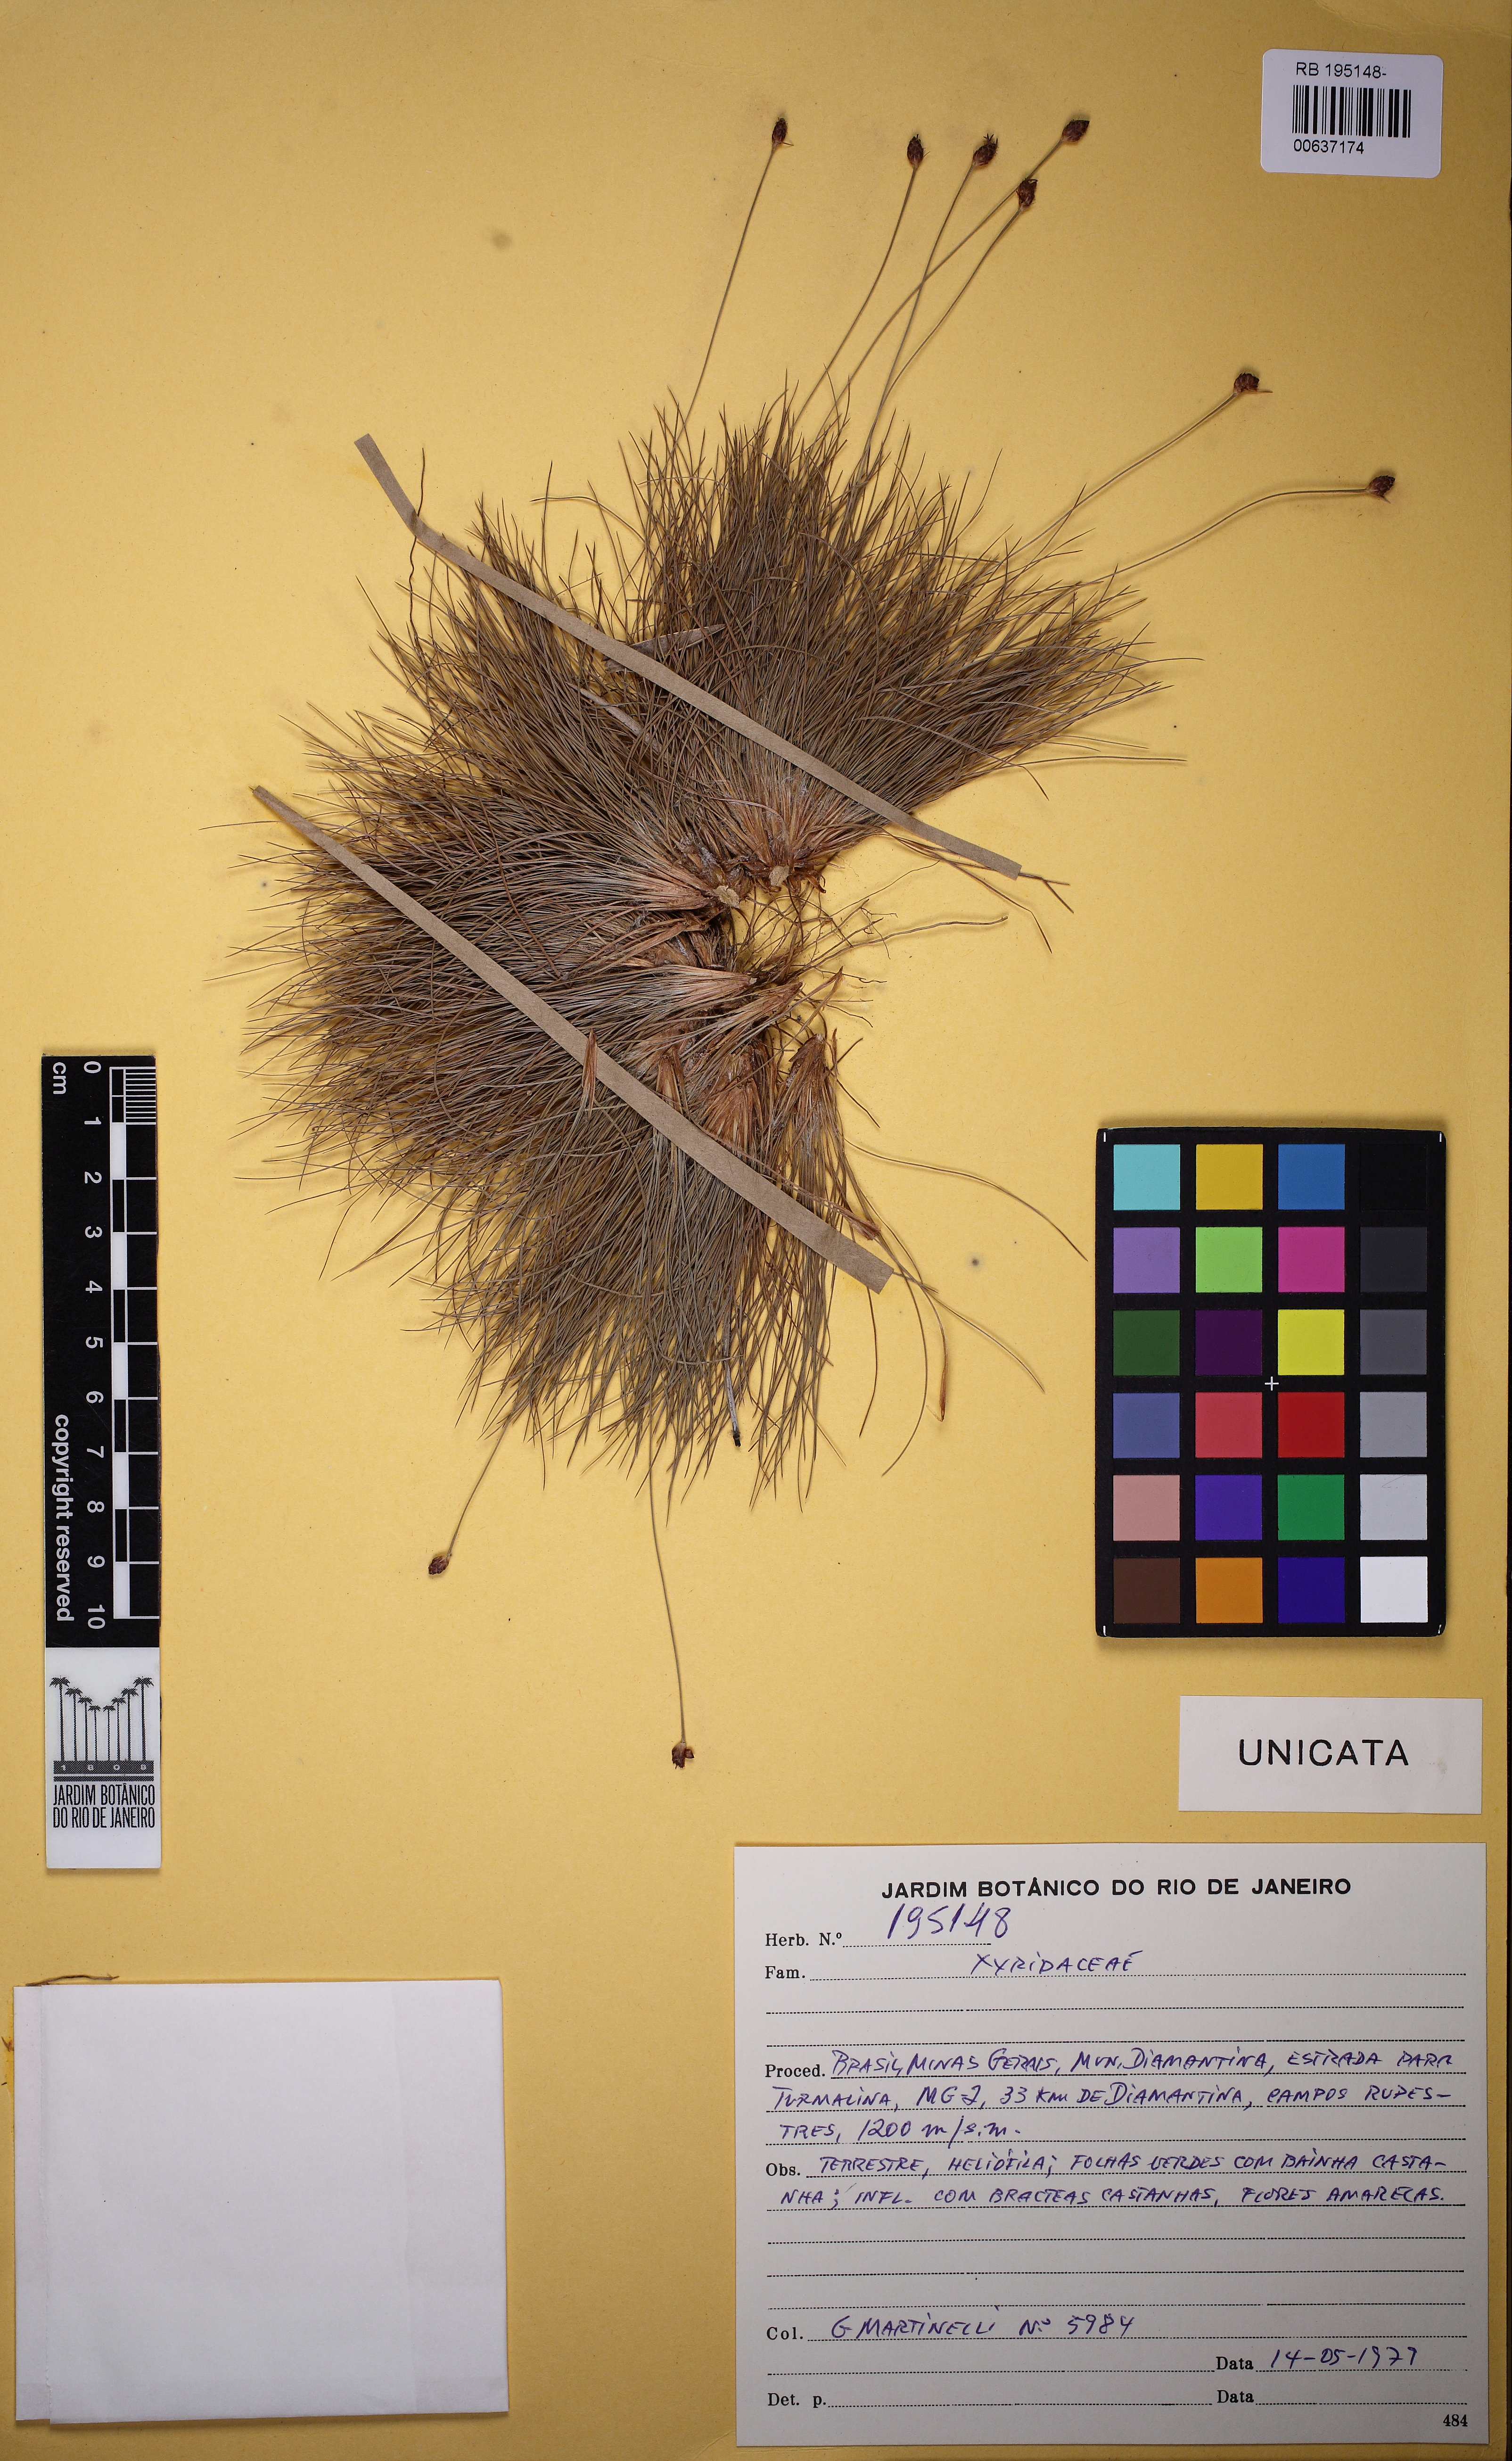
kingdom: Plantae
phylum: Tracheophyta
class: Liliopsida
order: Poales
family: Cyperaceae
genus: Bulbostylis
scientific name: Bulbostylis
